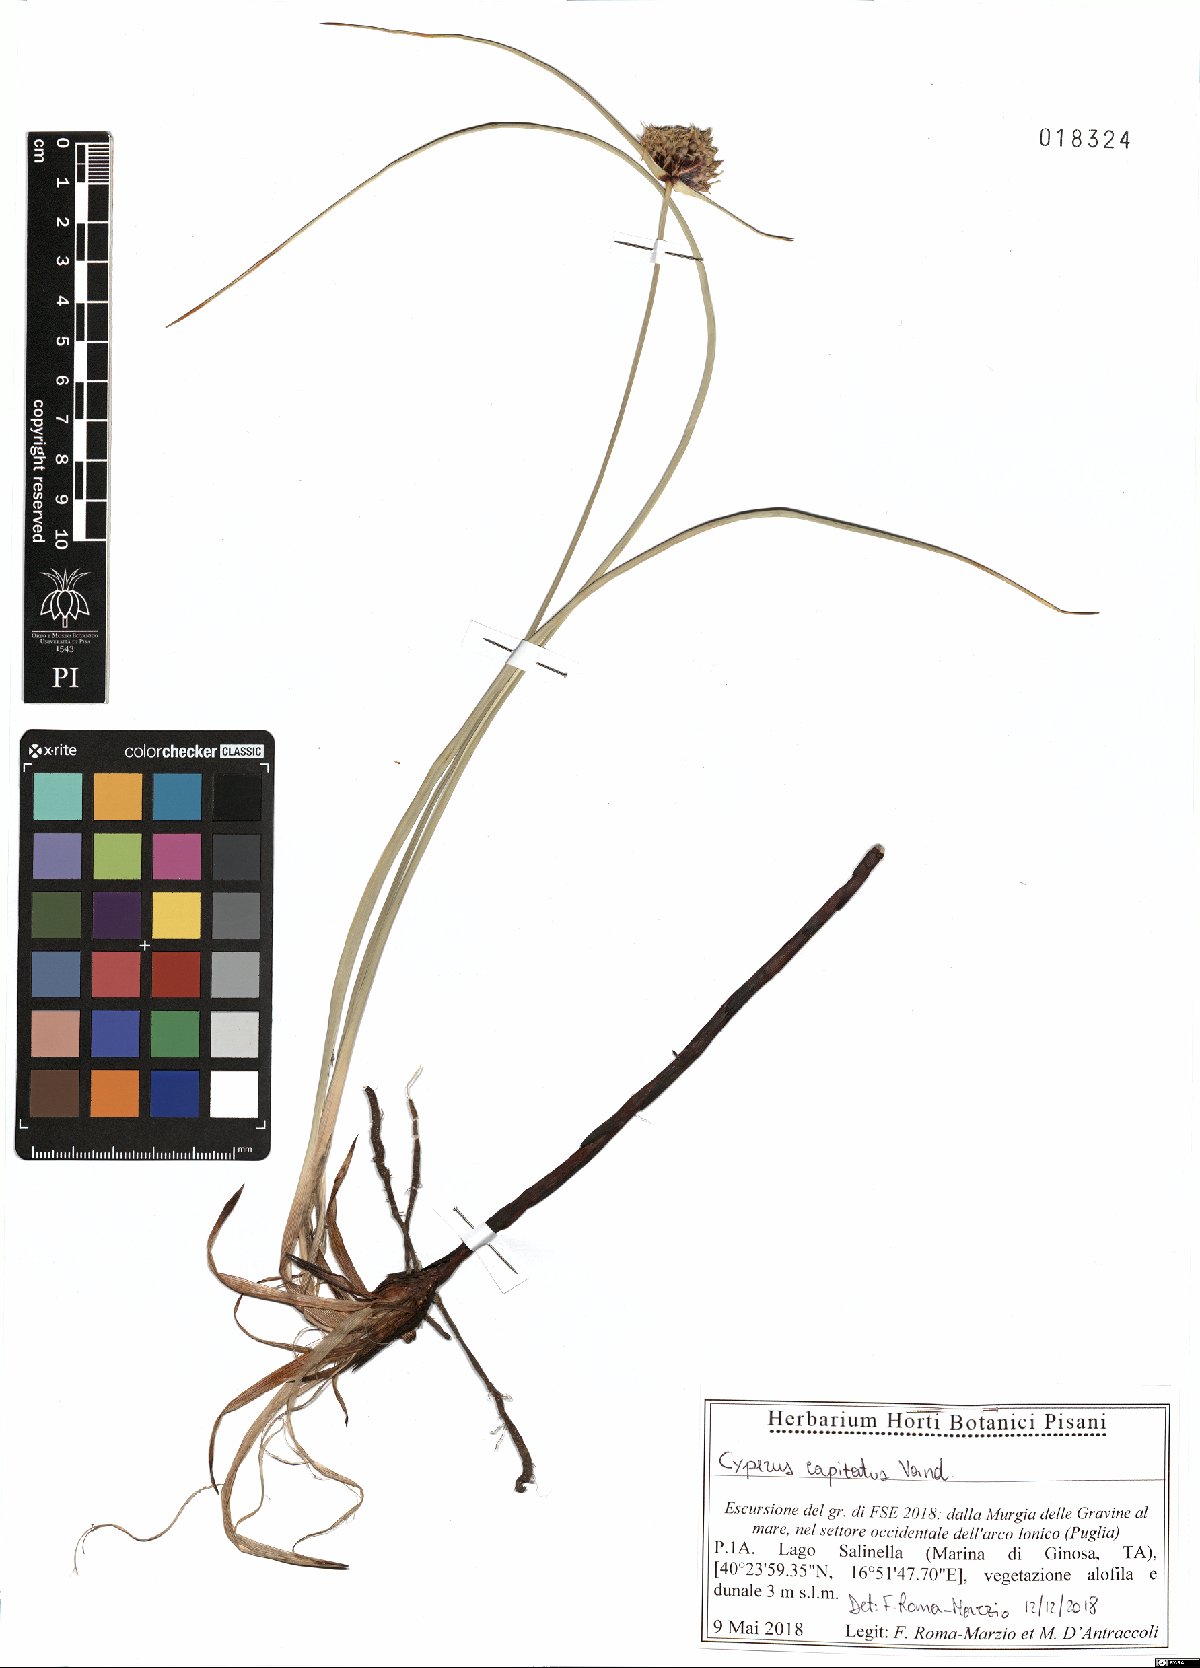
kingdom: Plantae
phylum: Tracheophyta
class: Liliopsida
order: Poales
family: Cyperaceae
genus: Cyperus
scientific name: Cyperus capitatus
